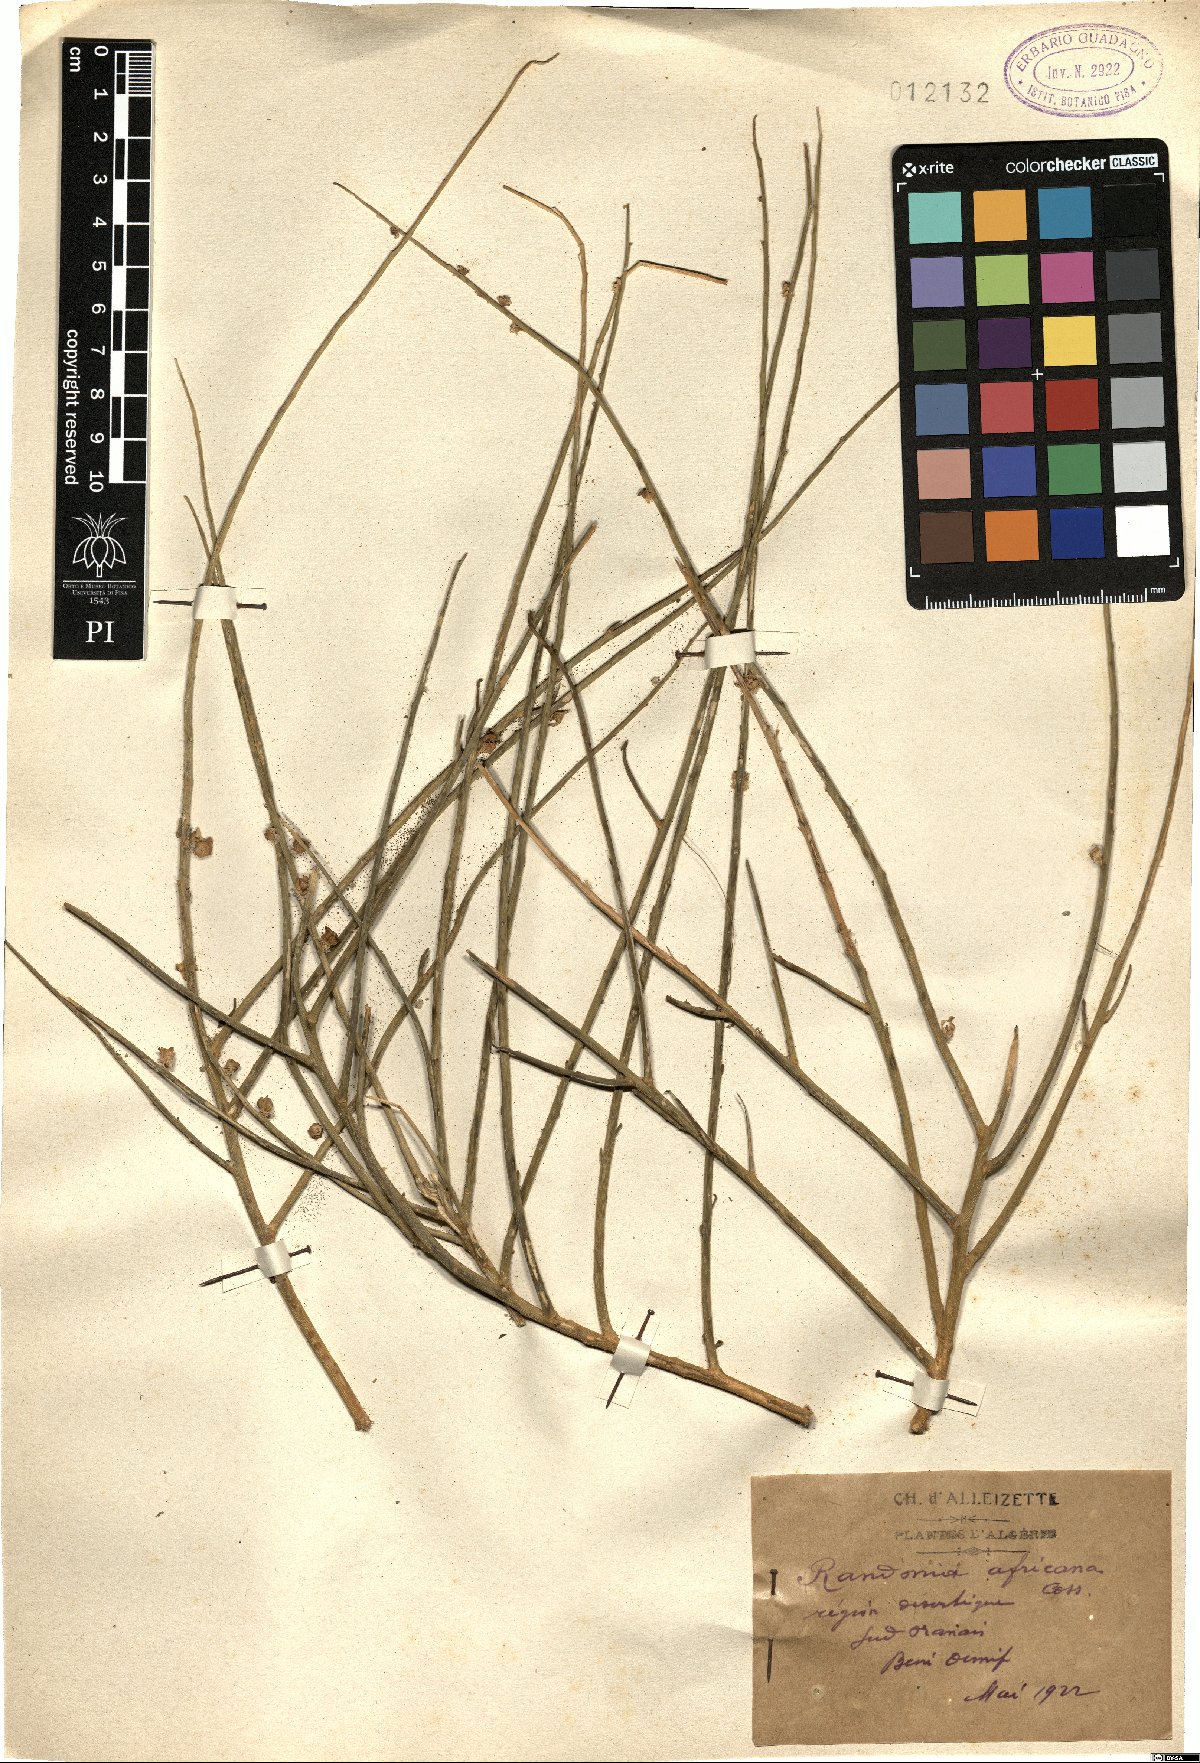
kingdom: Plantae
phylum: Tracheophyta
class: Magnoliopsida
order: Brassicales
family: Resedaceae
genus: Randonia
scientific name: Randonia africana
